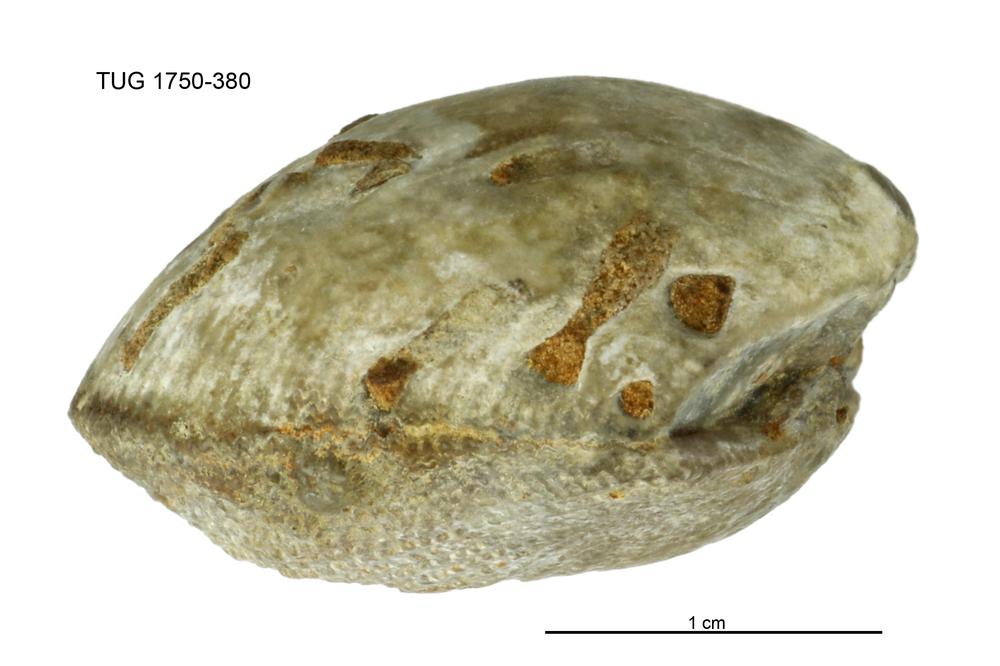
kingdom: Animalia
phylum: Brachiopoda
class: Rhynchonellata
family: Clitambonitidae
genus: Clitambonites
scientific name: Clitambonites squamatus
